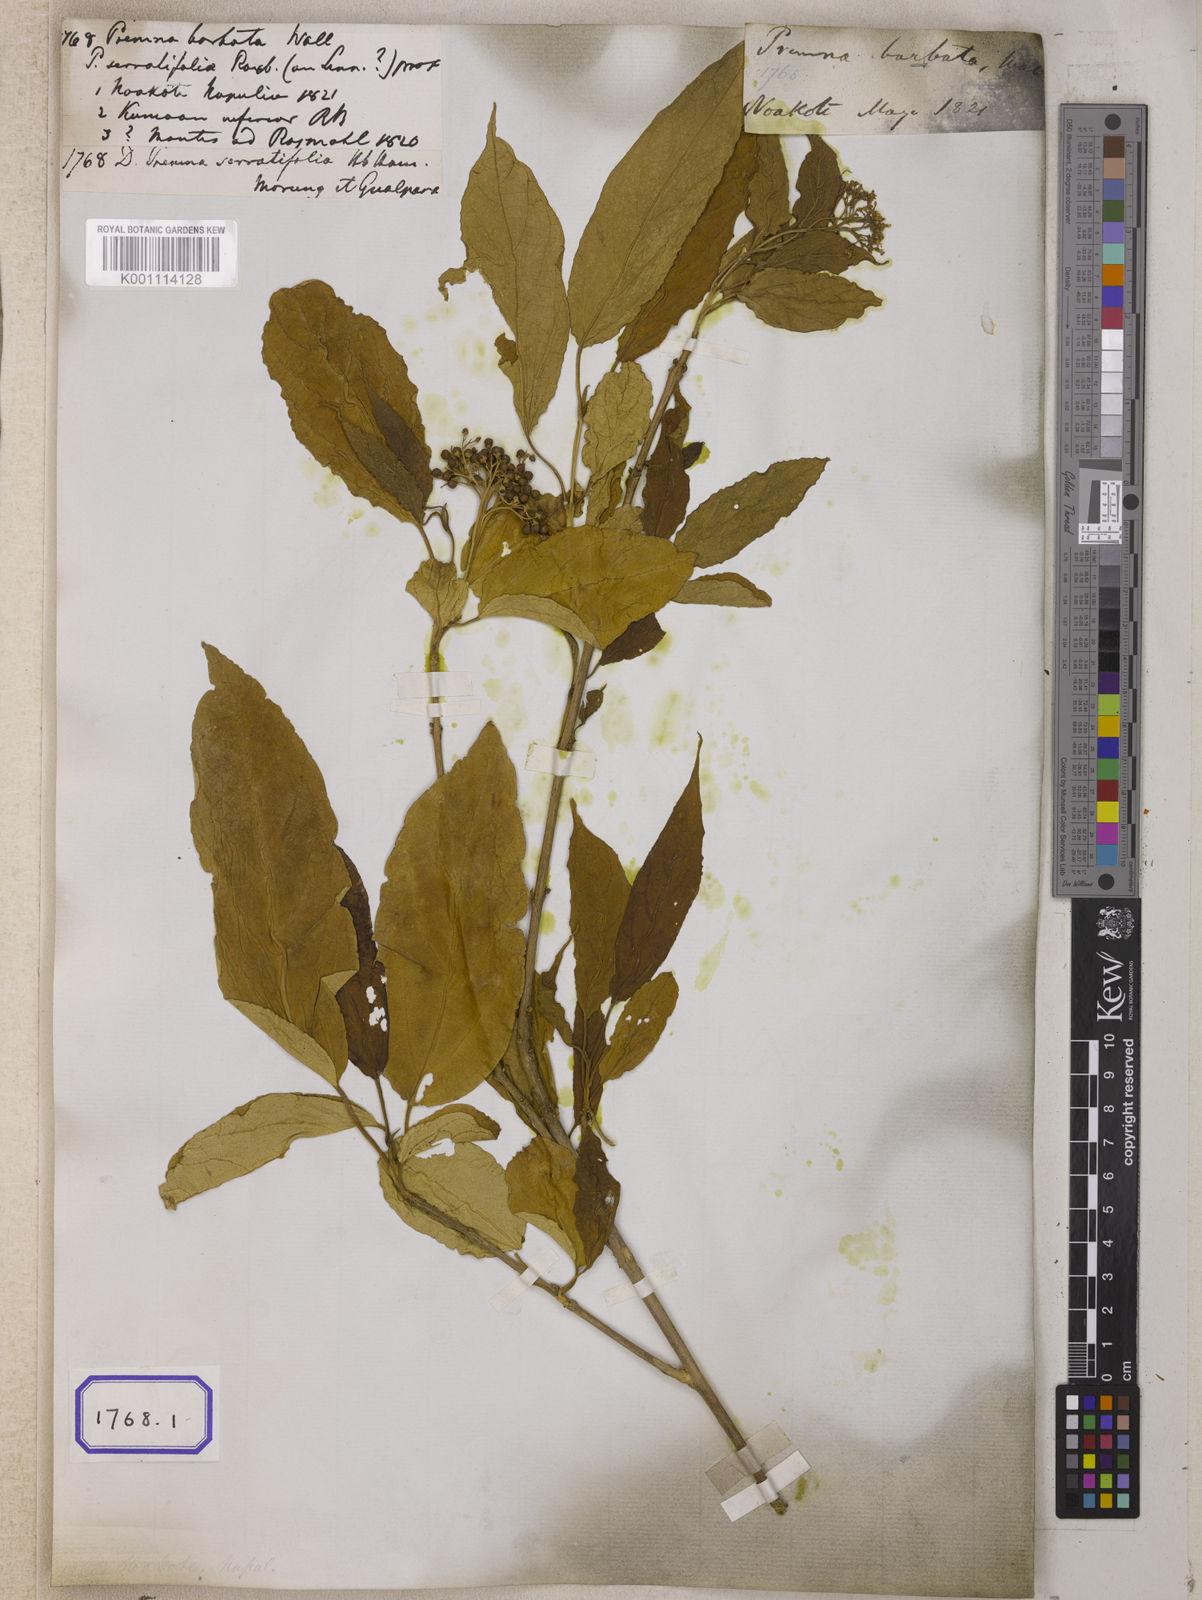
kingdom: Plantae
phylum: Tracheophyta
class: Magnoliopsida
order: Lamiales
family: Lamiaceae
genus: Premna
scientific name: Premna
